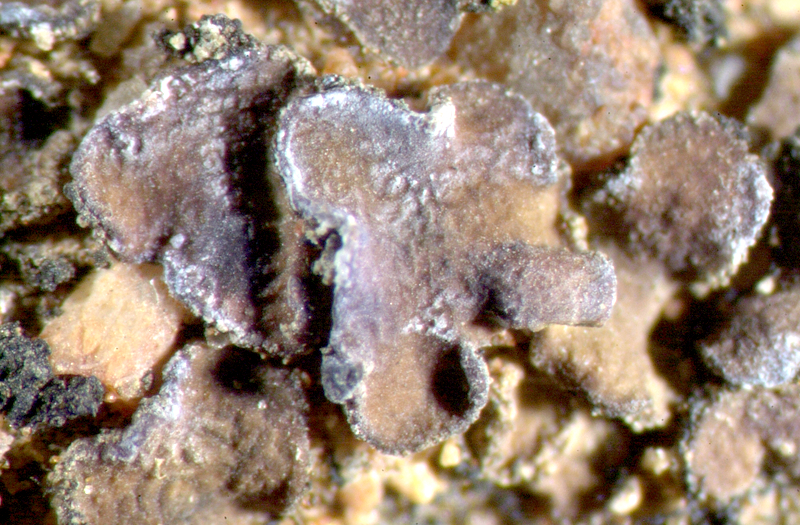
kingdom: Fungi
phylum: Ascomycota
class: Eurotiomycetes
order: Verrucariales
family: Verrucariaceae
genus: Catapyrenium
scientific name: Catapyrenium tenellum
